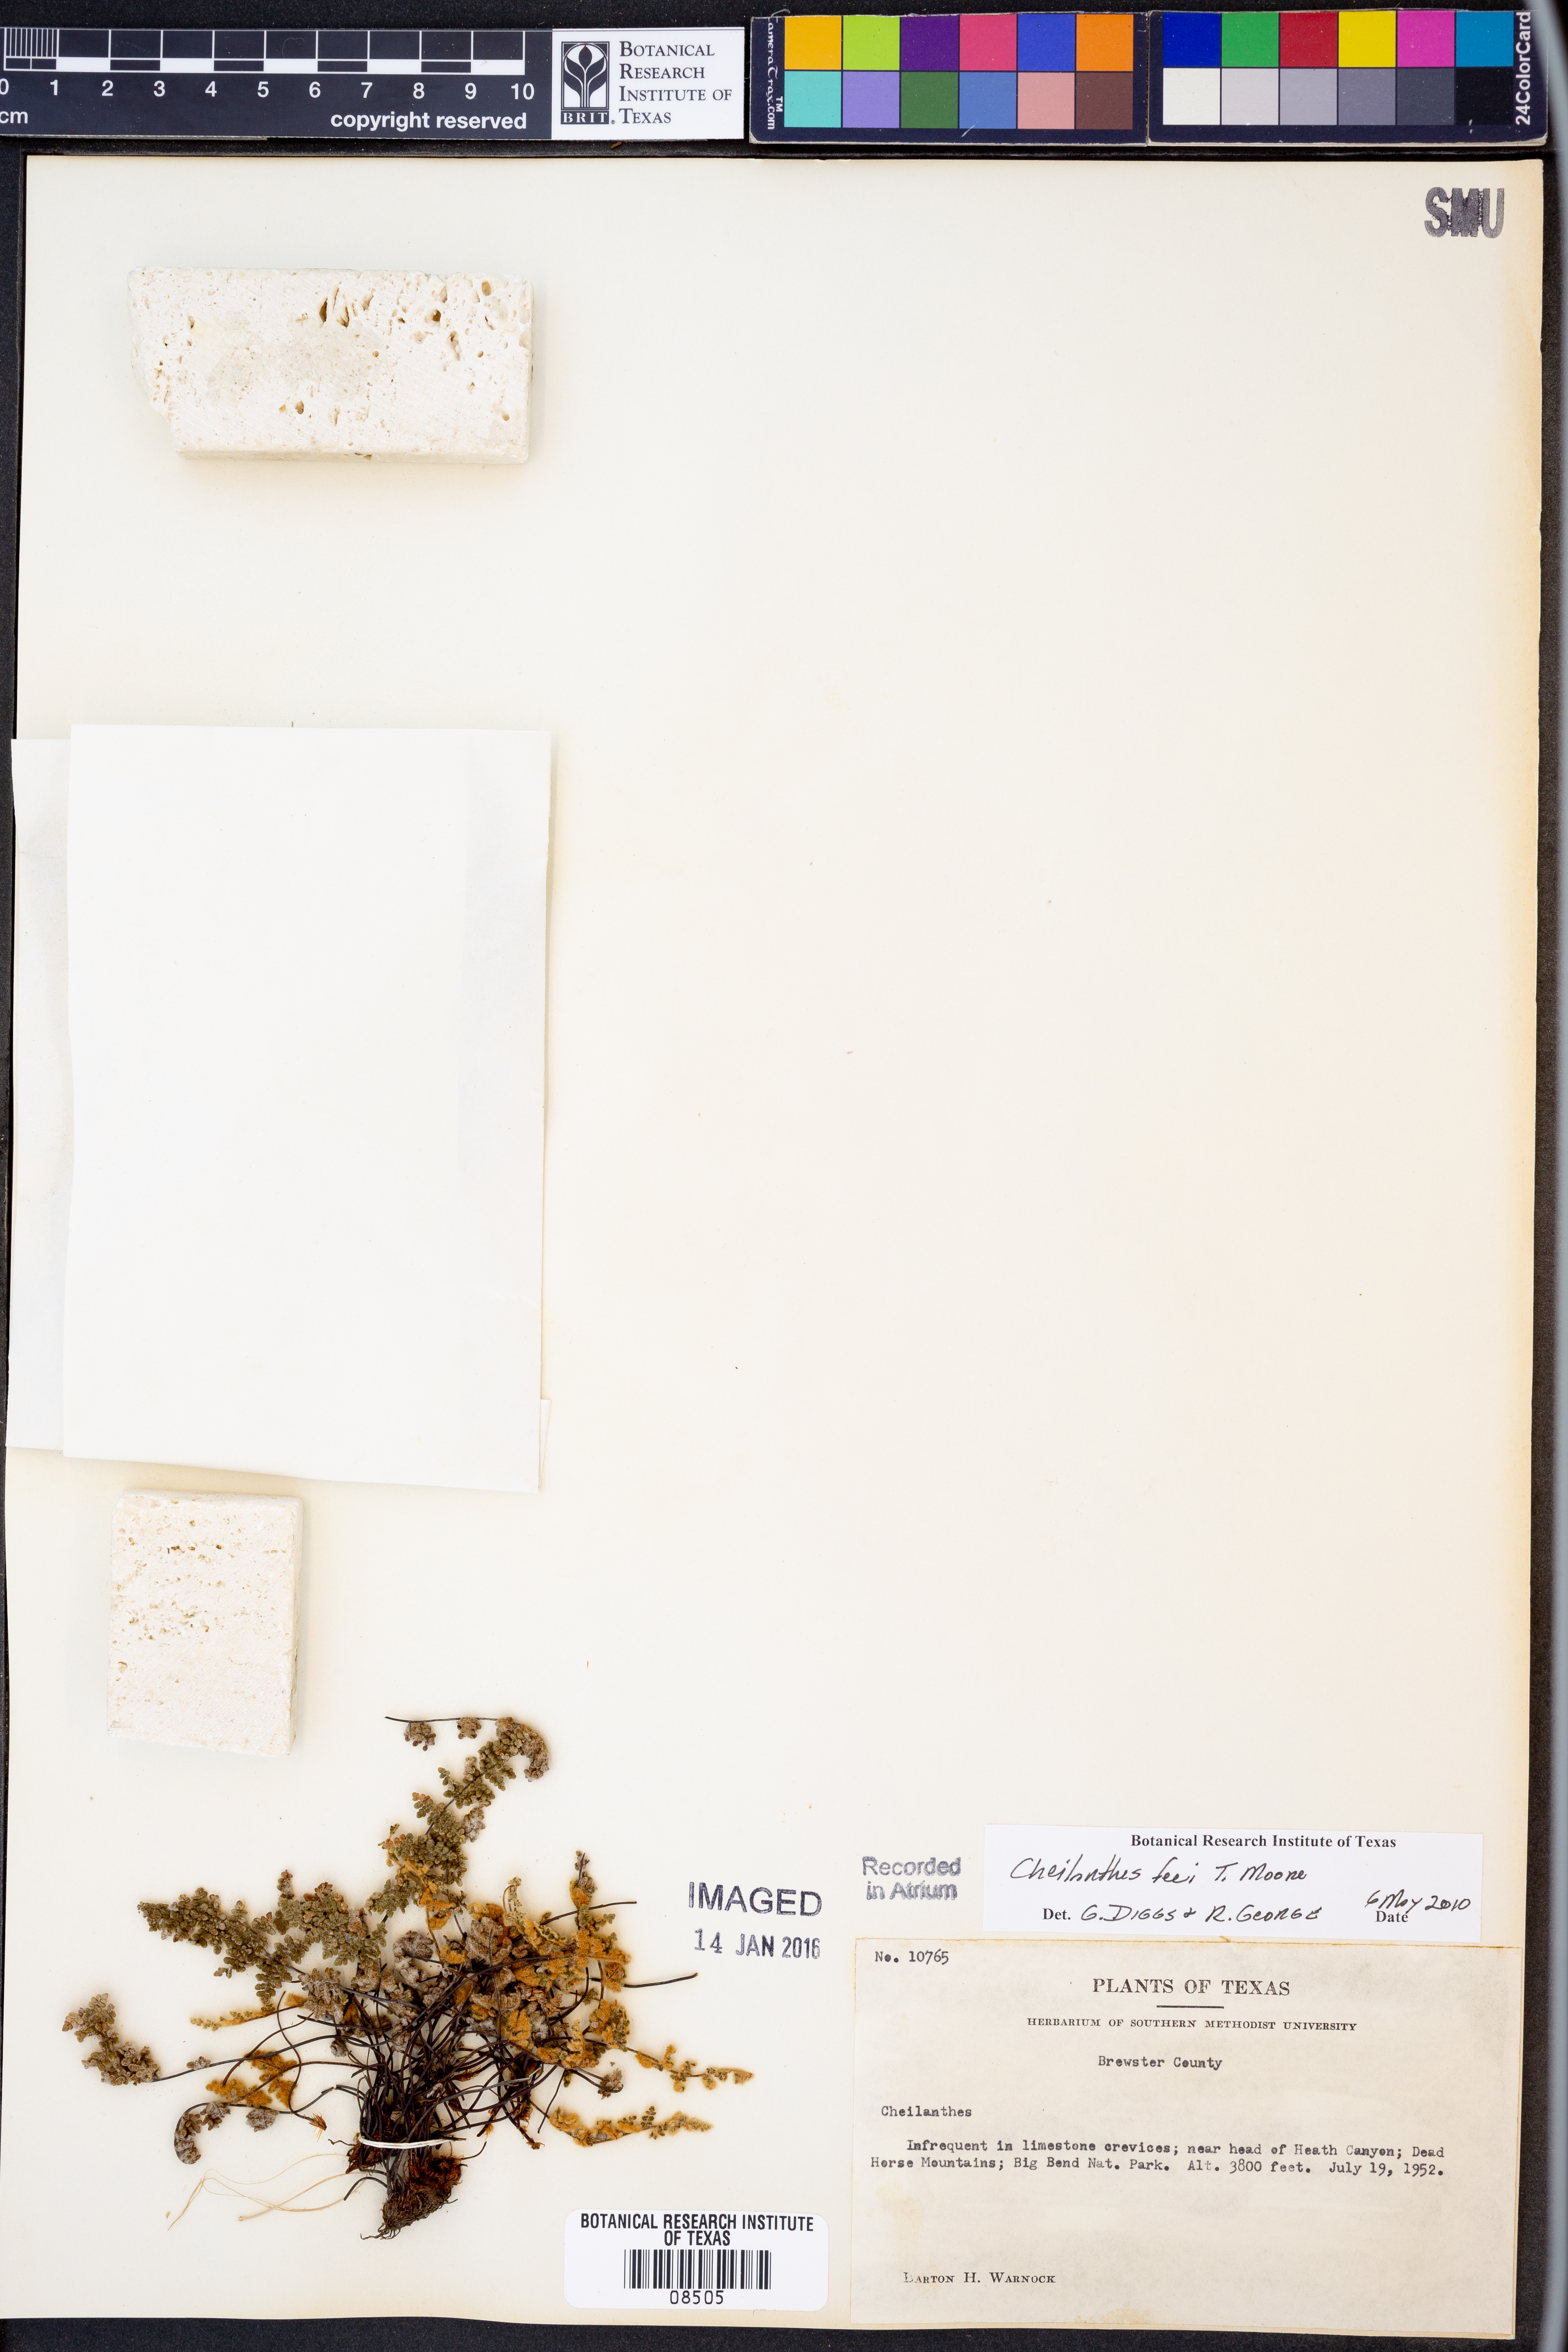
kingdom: Plantae
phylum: Tracheophyta
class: Polypodiopsida
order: Polypodiales
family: Pteridaceae
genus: Myriopteris
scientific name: Myriopteris gracilis
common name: Fee's lip fern
